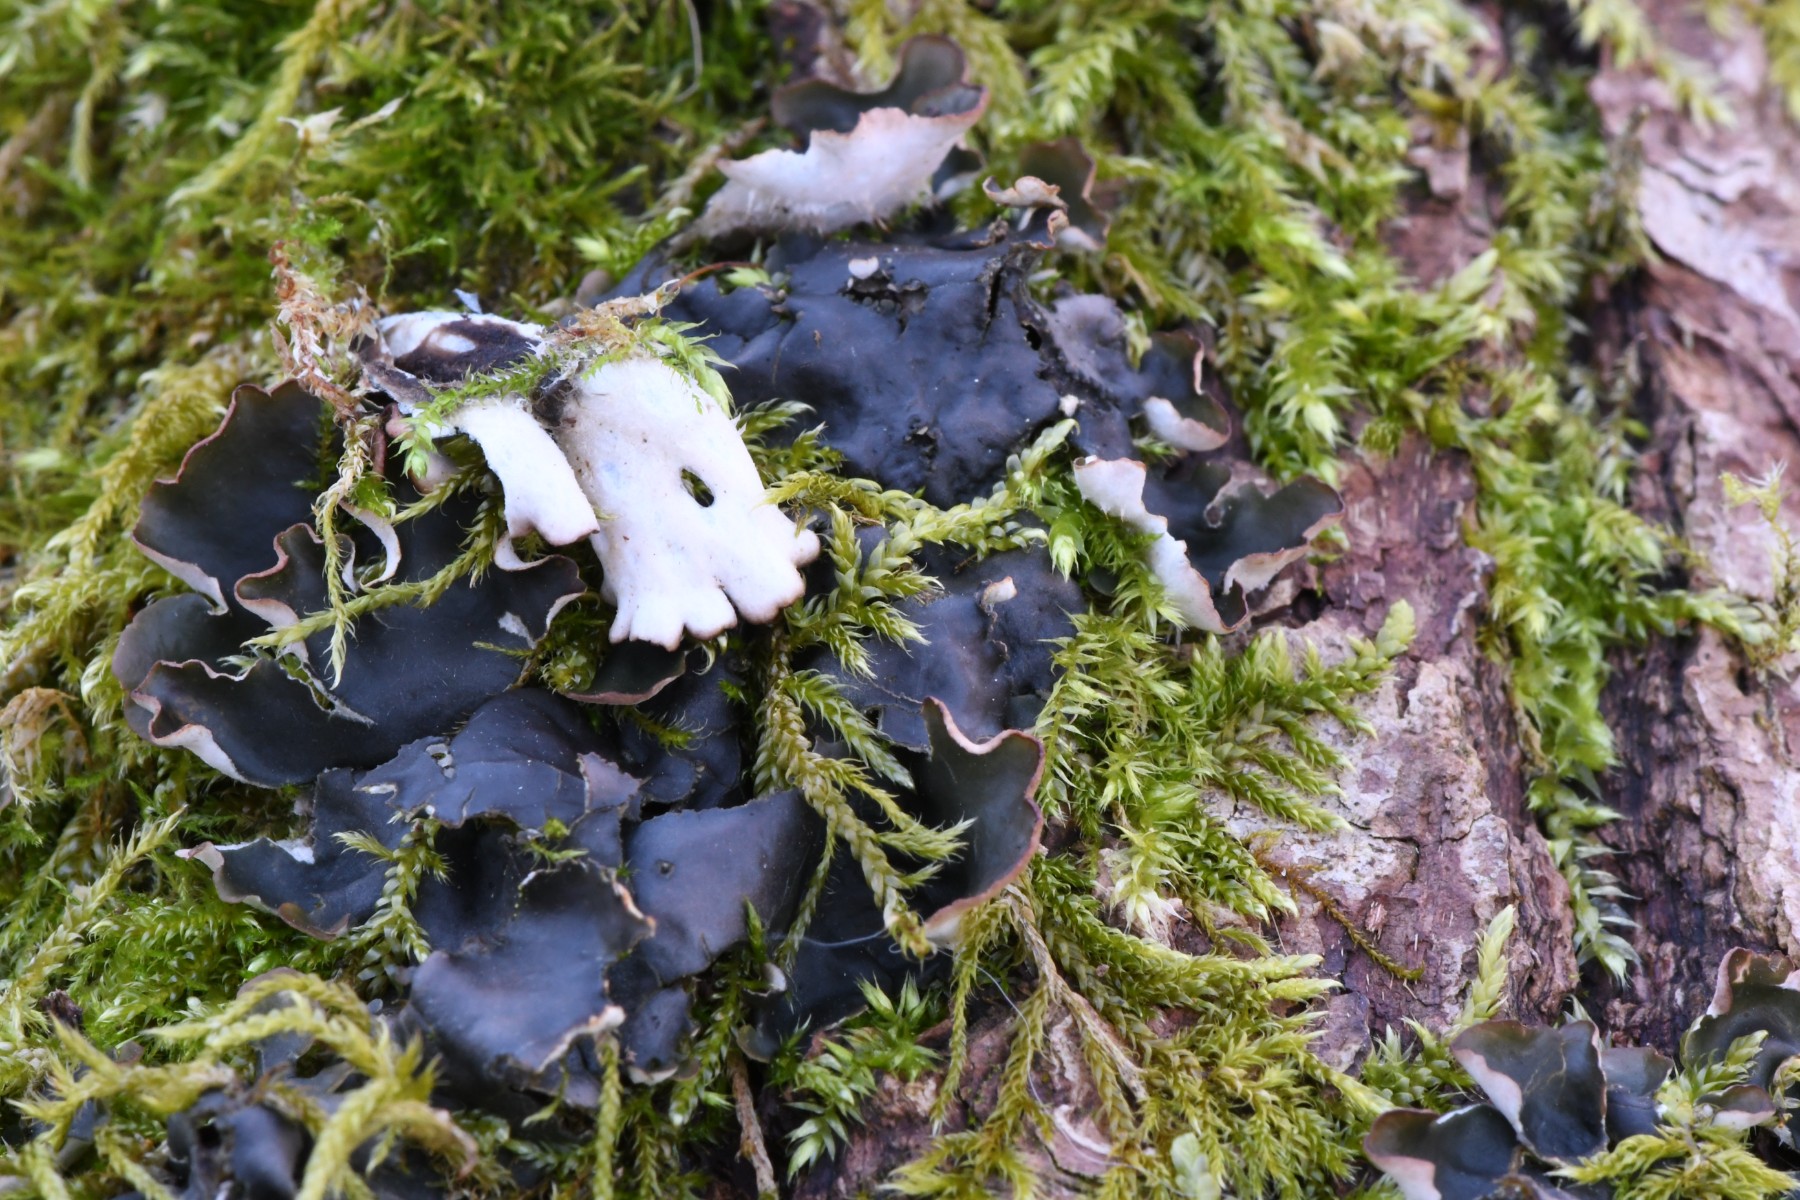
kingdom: Fungi
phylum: Ascomycota
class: Lecanoromycetes
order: Peltigerales
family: Peltigeraceae
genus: Peltigera
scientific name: Peltigera hymenina
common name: hinde-skjoldlav
